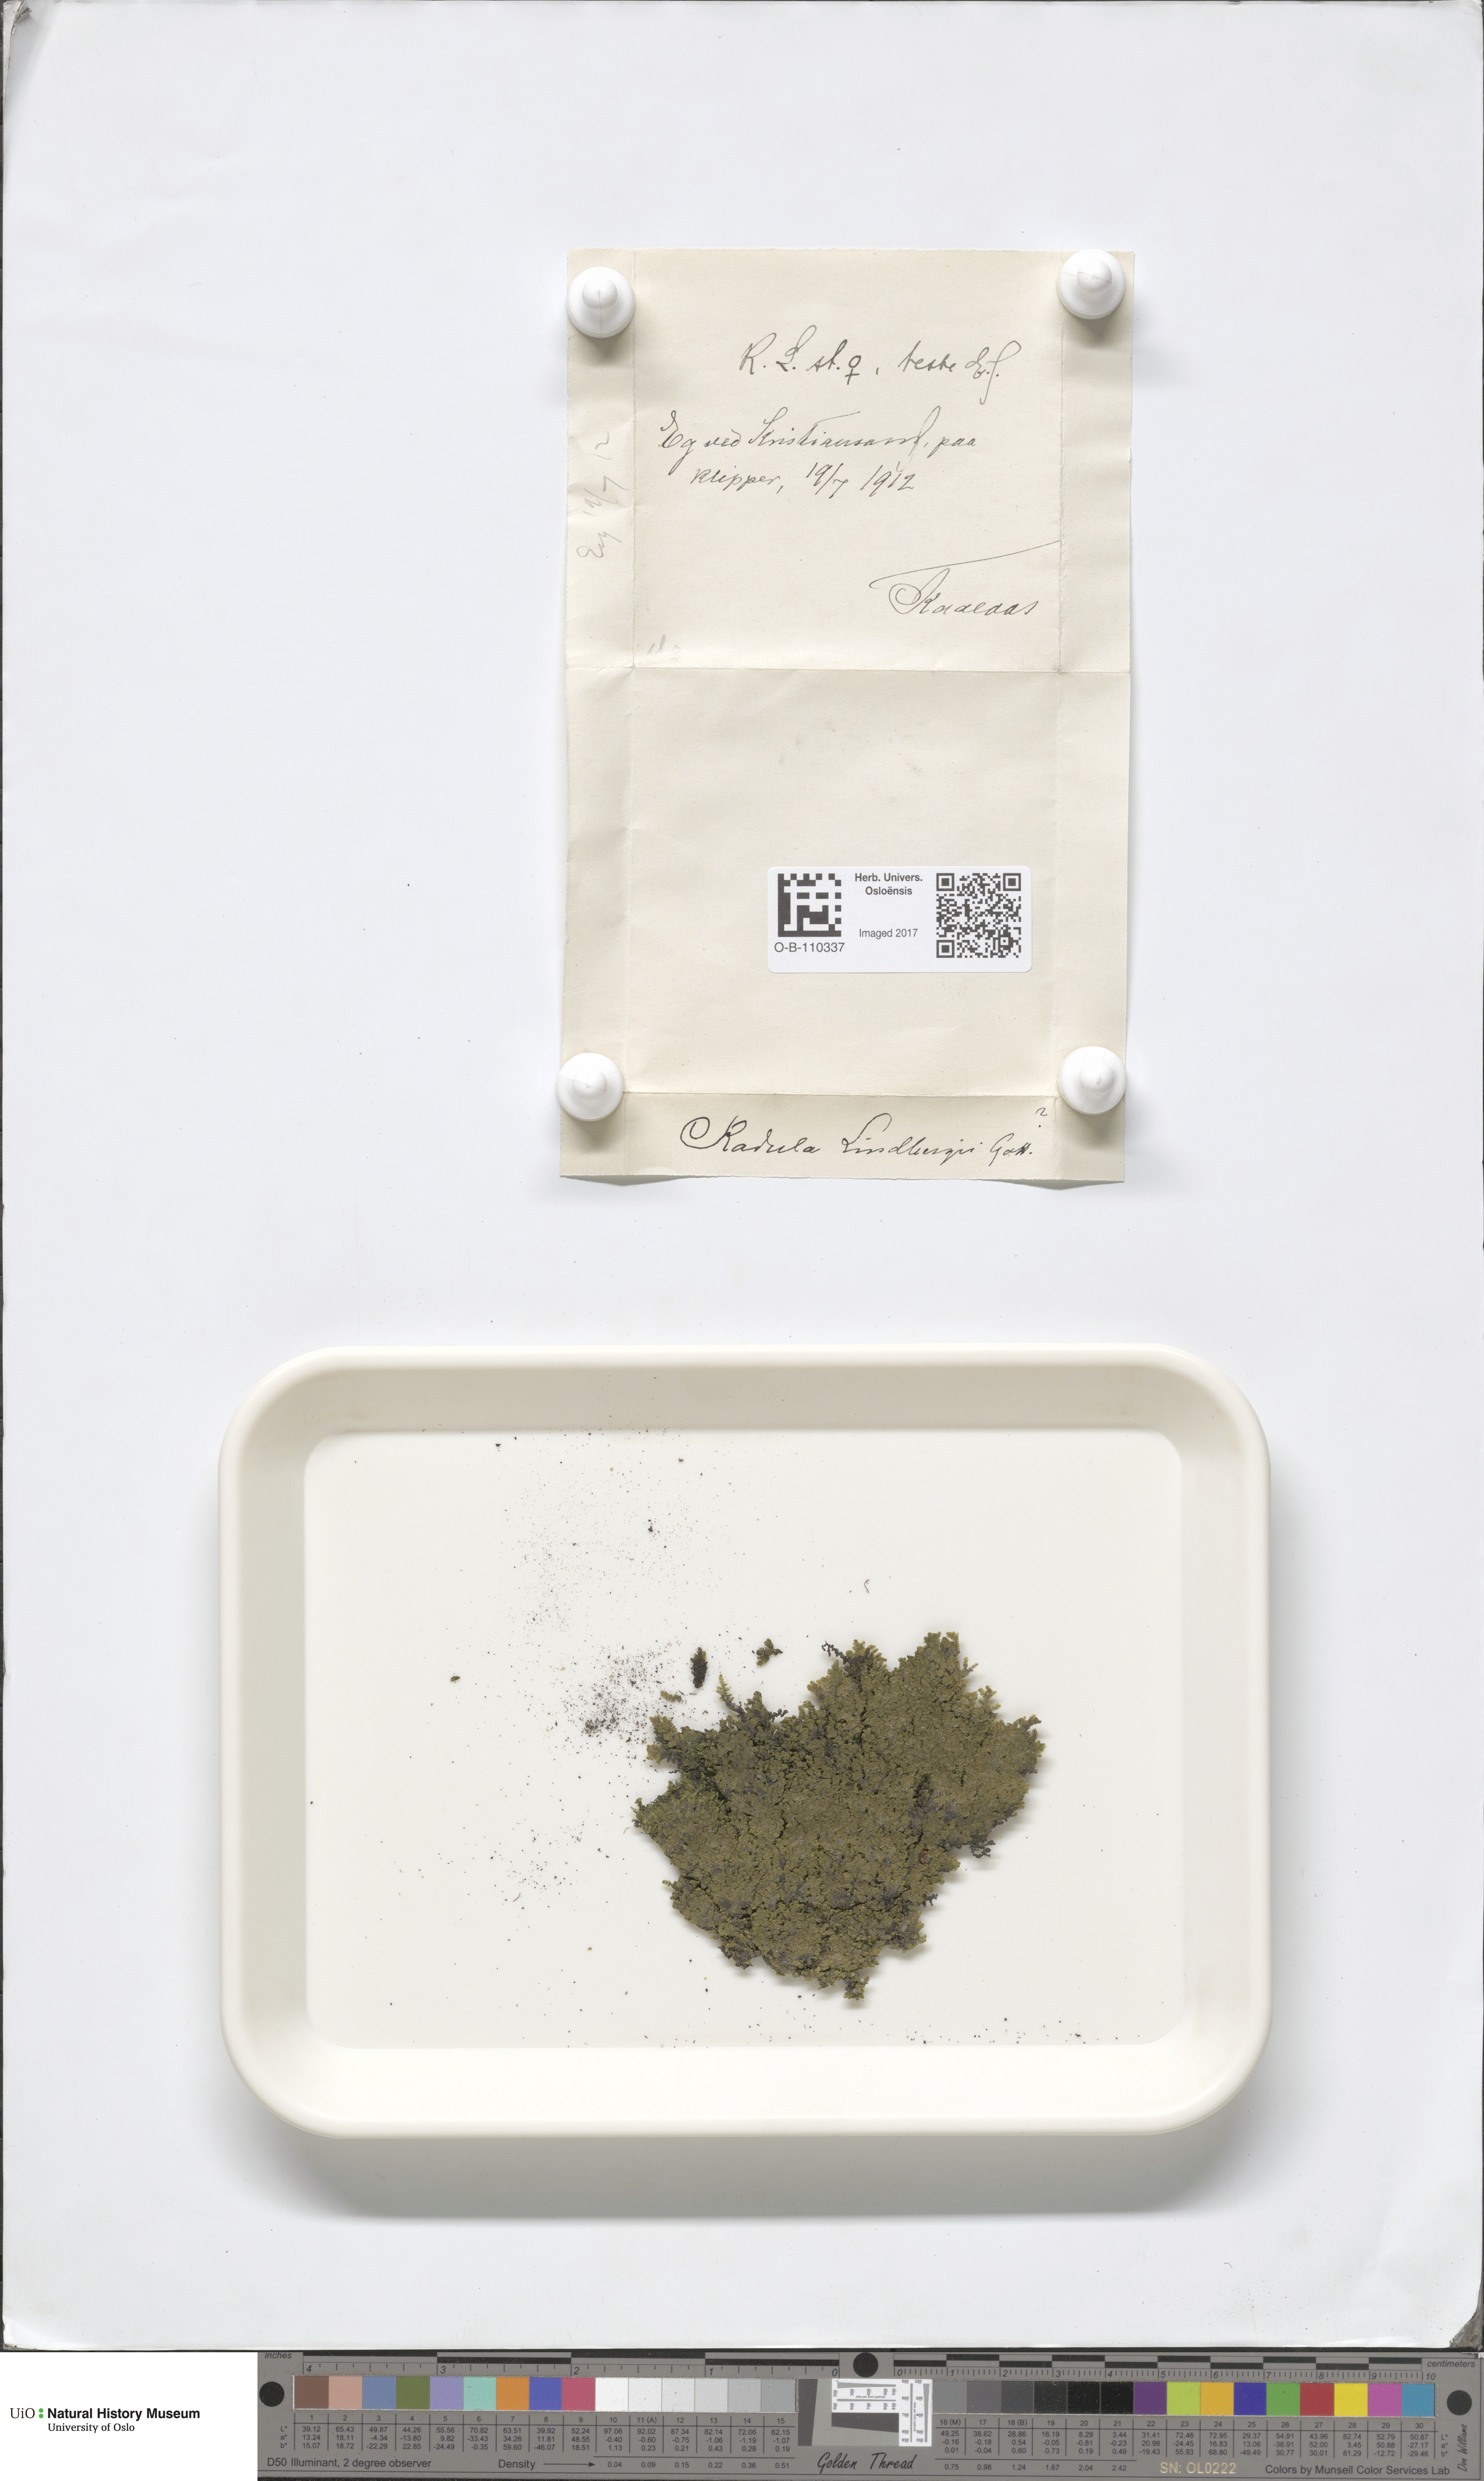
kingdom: Plantae
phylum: Marchantiophyta
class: Jungermanniopsida
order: Porellales
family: Radulaceae
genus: Radula
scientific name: Radula complanata
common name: Flat-leaved scalewort
